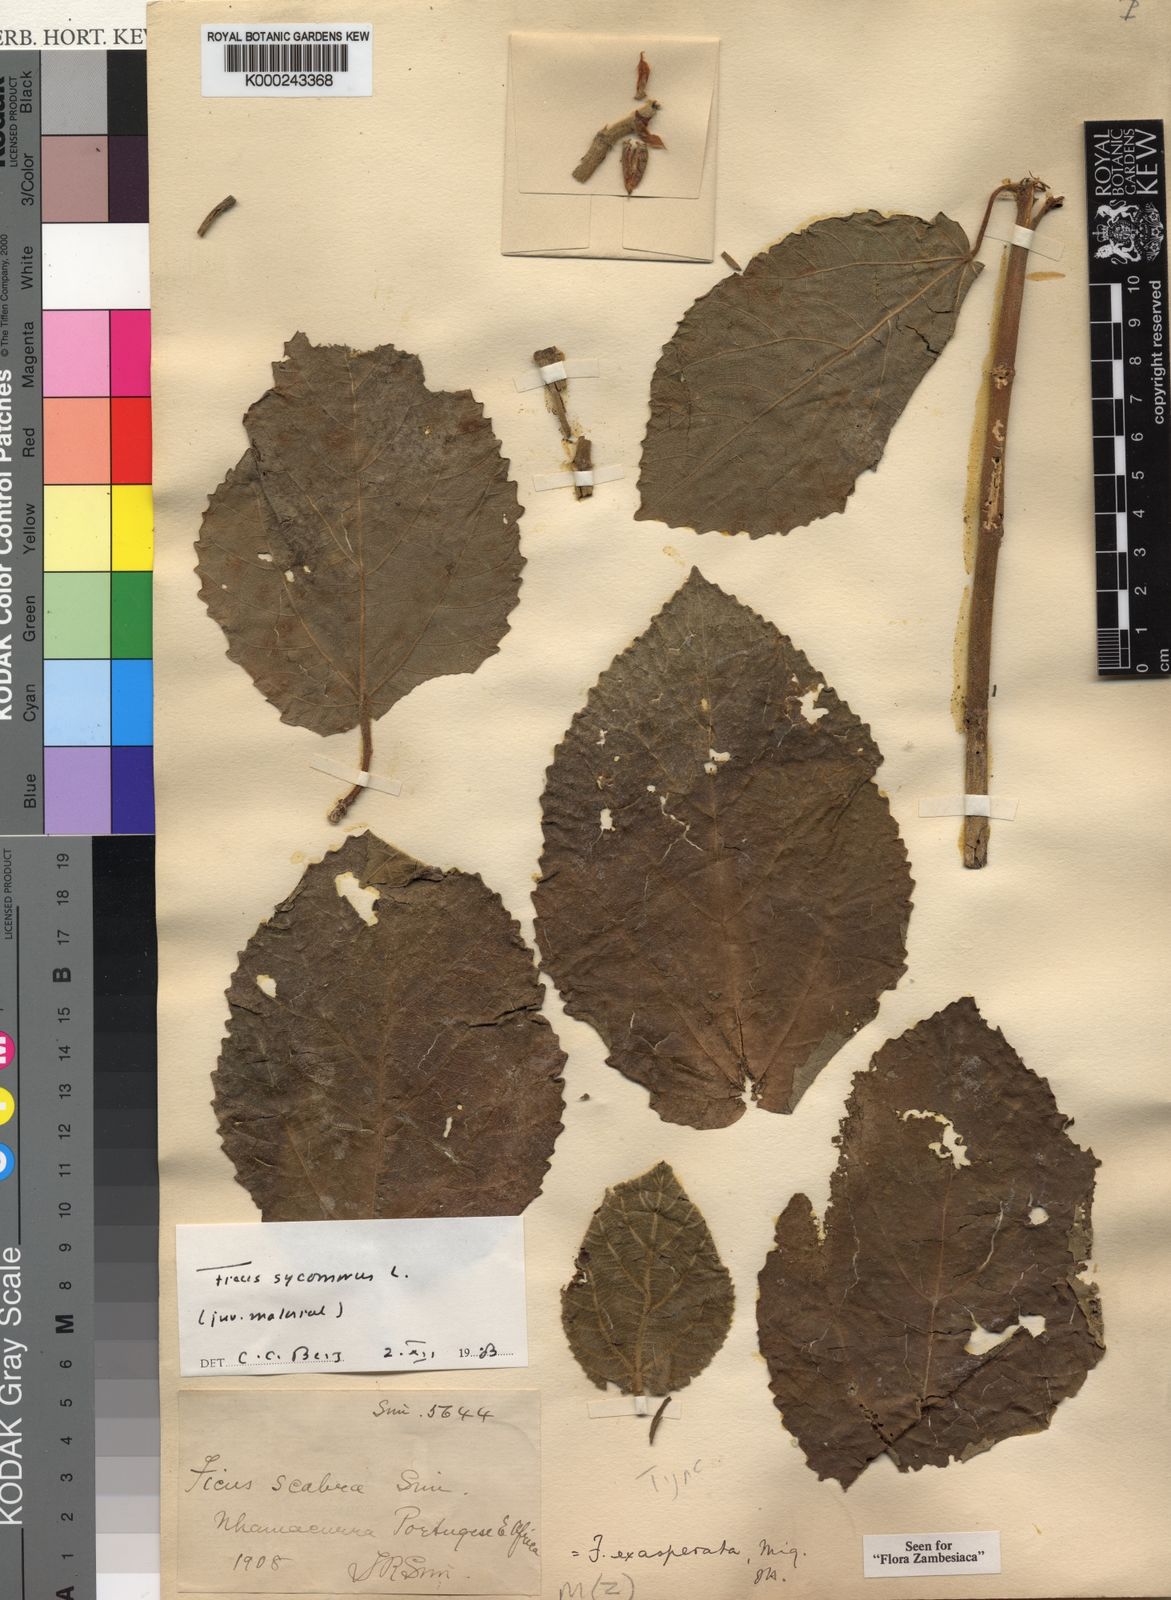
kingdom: Plantae
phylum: Tracheophyta
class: Magnoliopsida
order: Rosales
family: Moraceae
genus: Ficus
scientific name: Ficus sycomorus
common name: Sycomore
